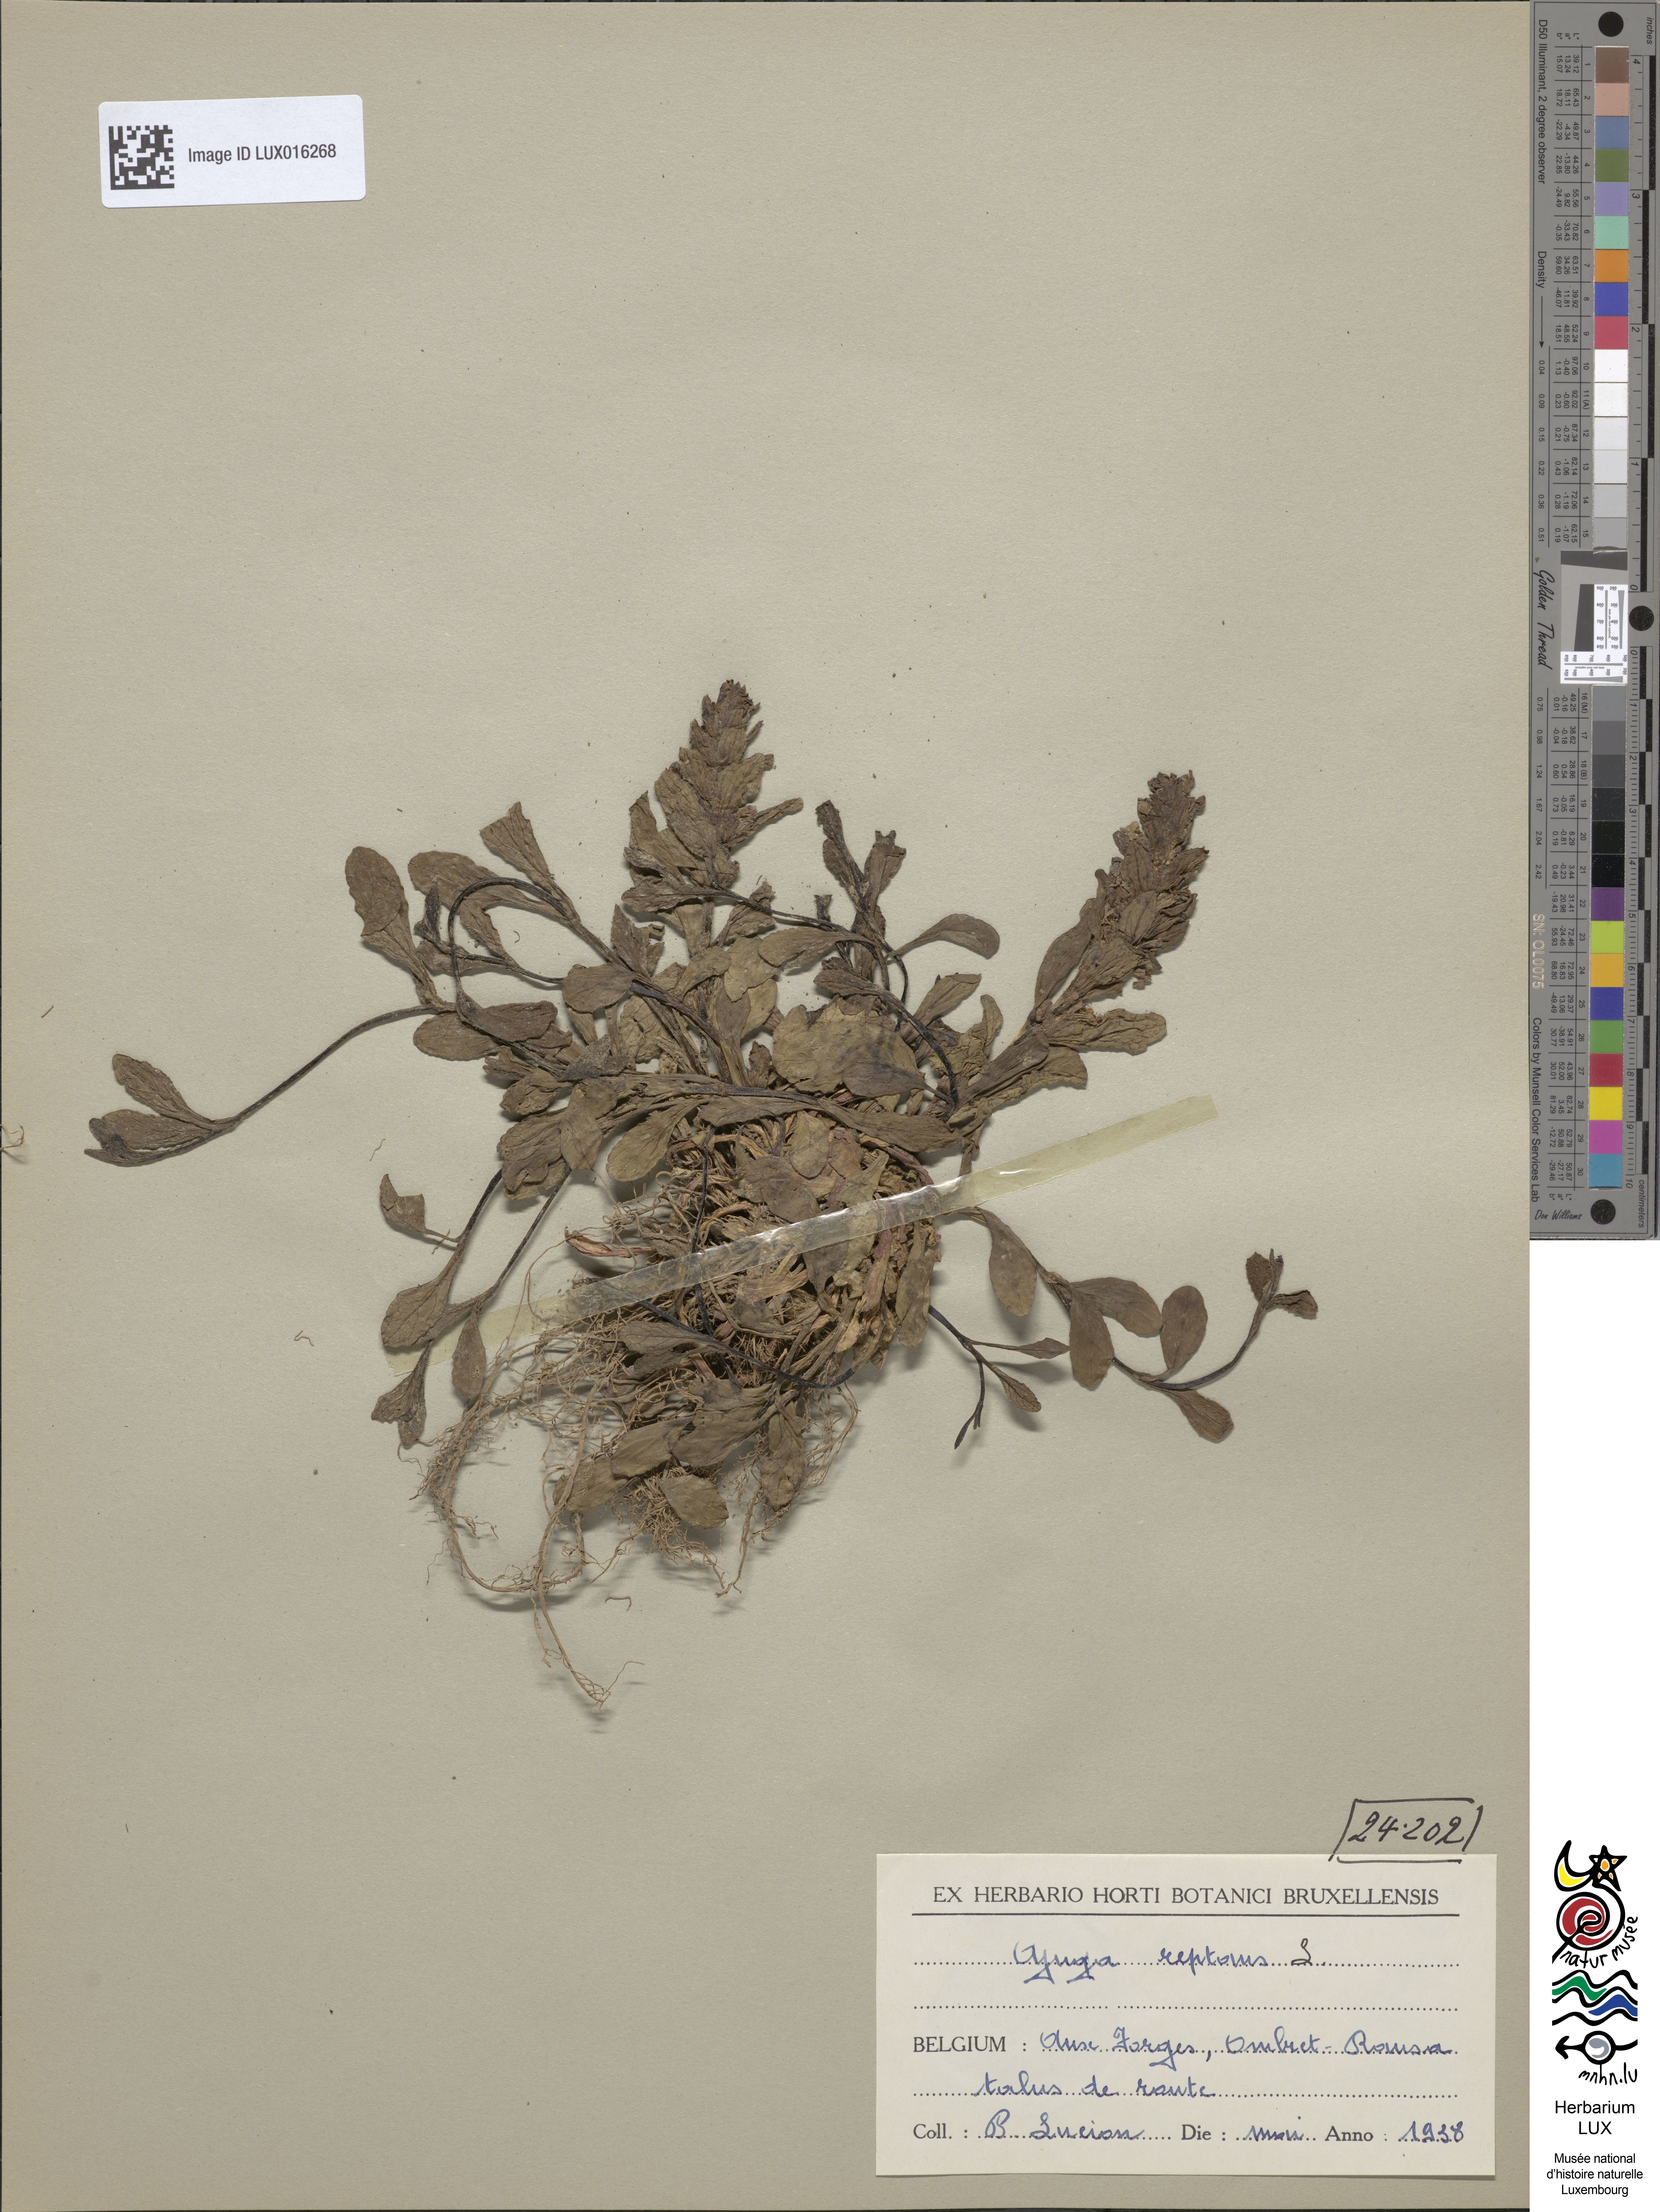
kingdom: Plantae
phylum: Tracheophyta
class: Magnoliopsida
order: Lamiales
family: Lamiaceae
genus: Ajuga
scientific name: Ajuga reptans
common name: Bugle
